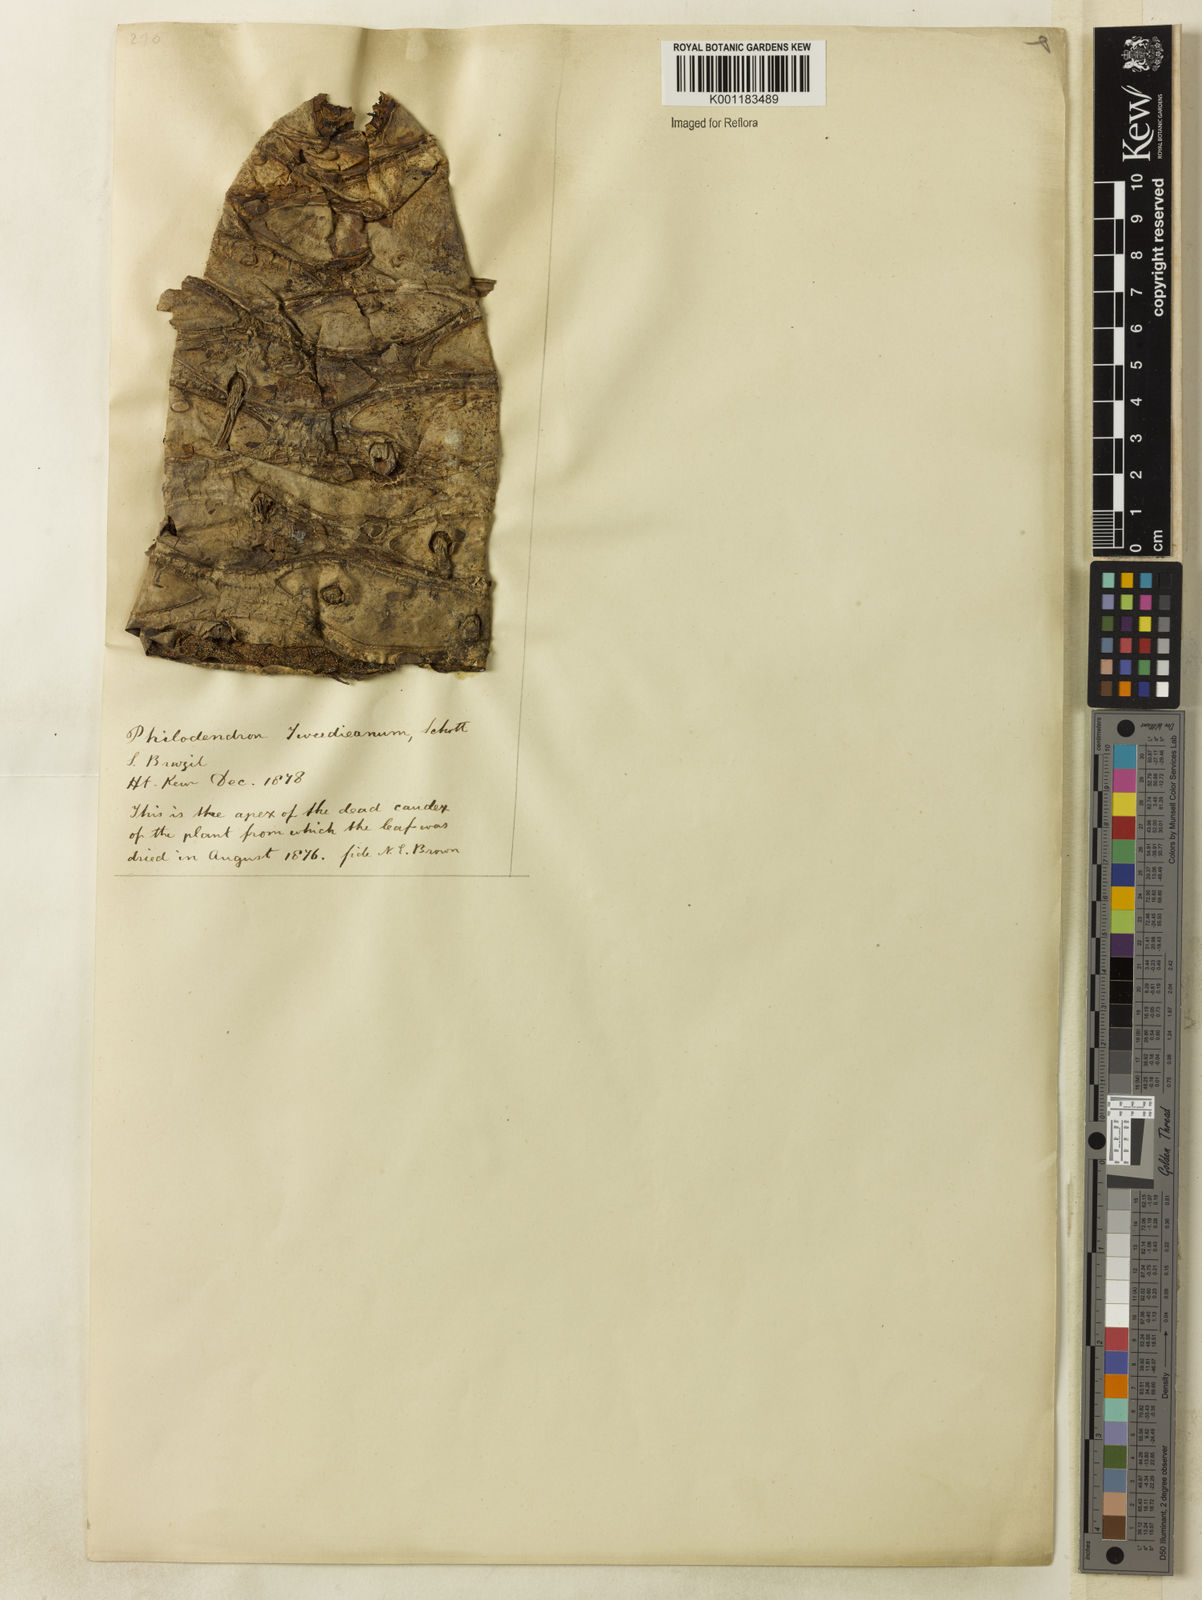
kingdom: Plantae
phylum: Tracheophyta
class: Liliopsida
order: Alismatales
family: Araceae
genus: Thaumatophyllum
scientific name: Thaumatophyllum tweedieanum
